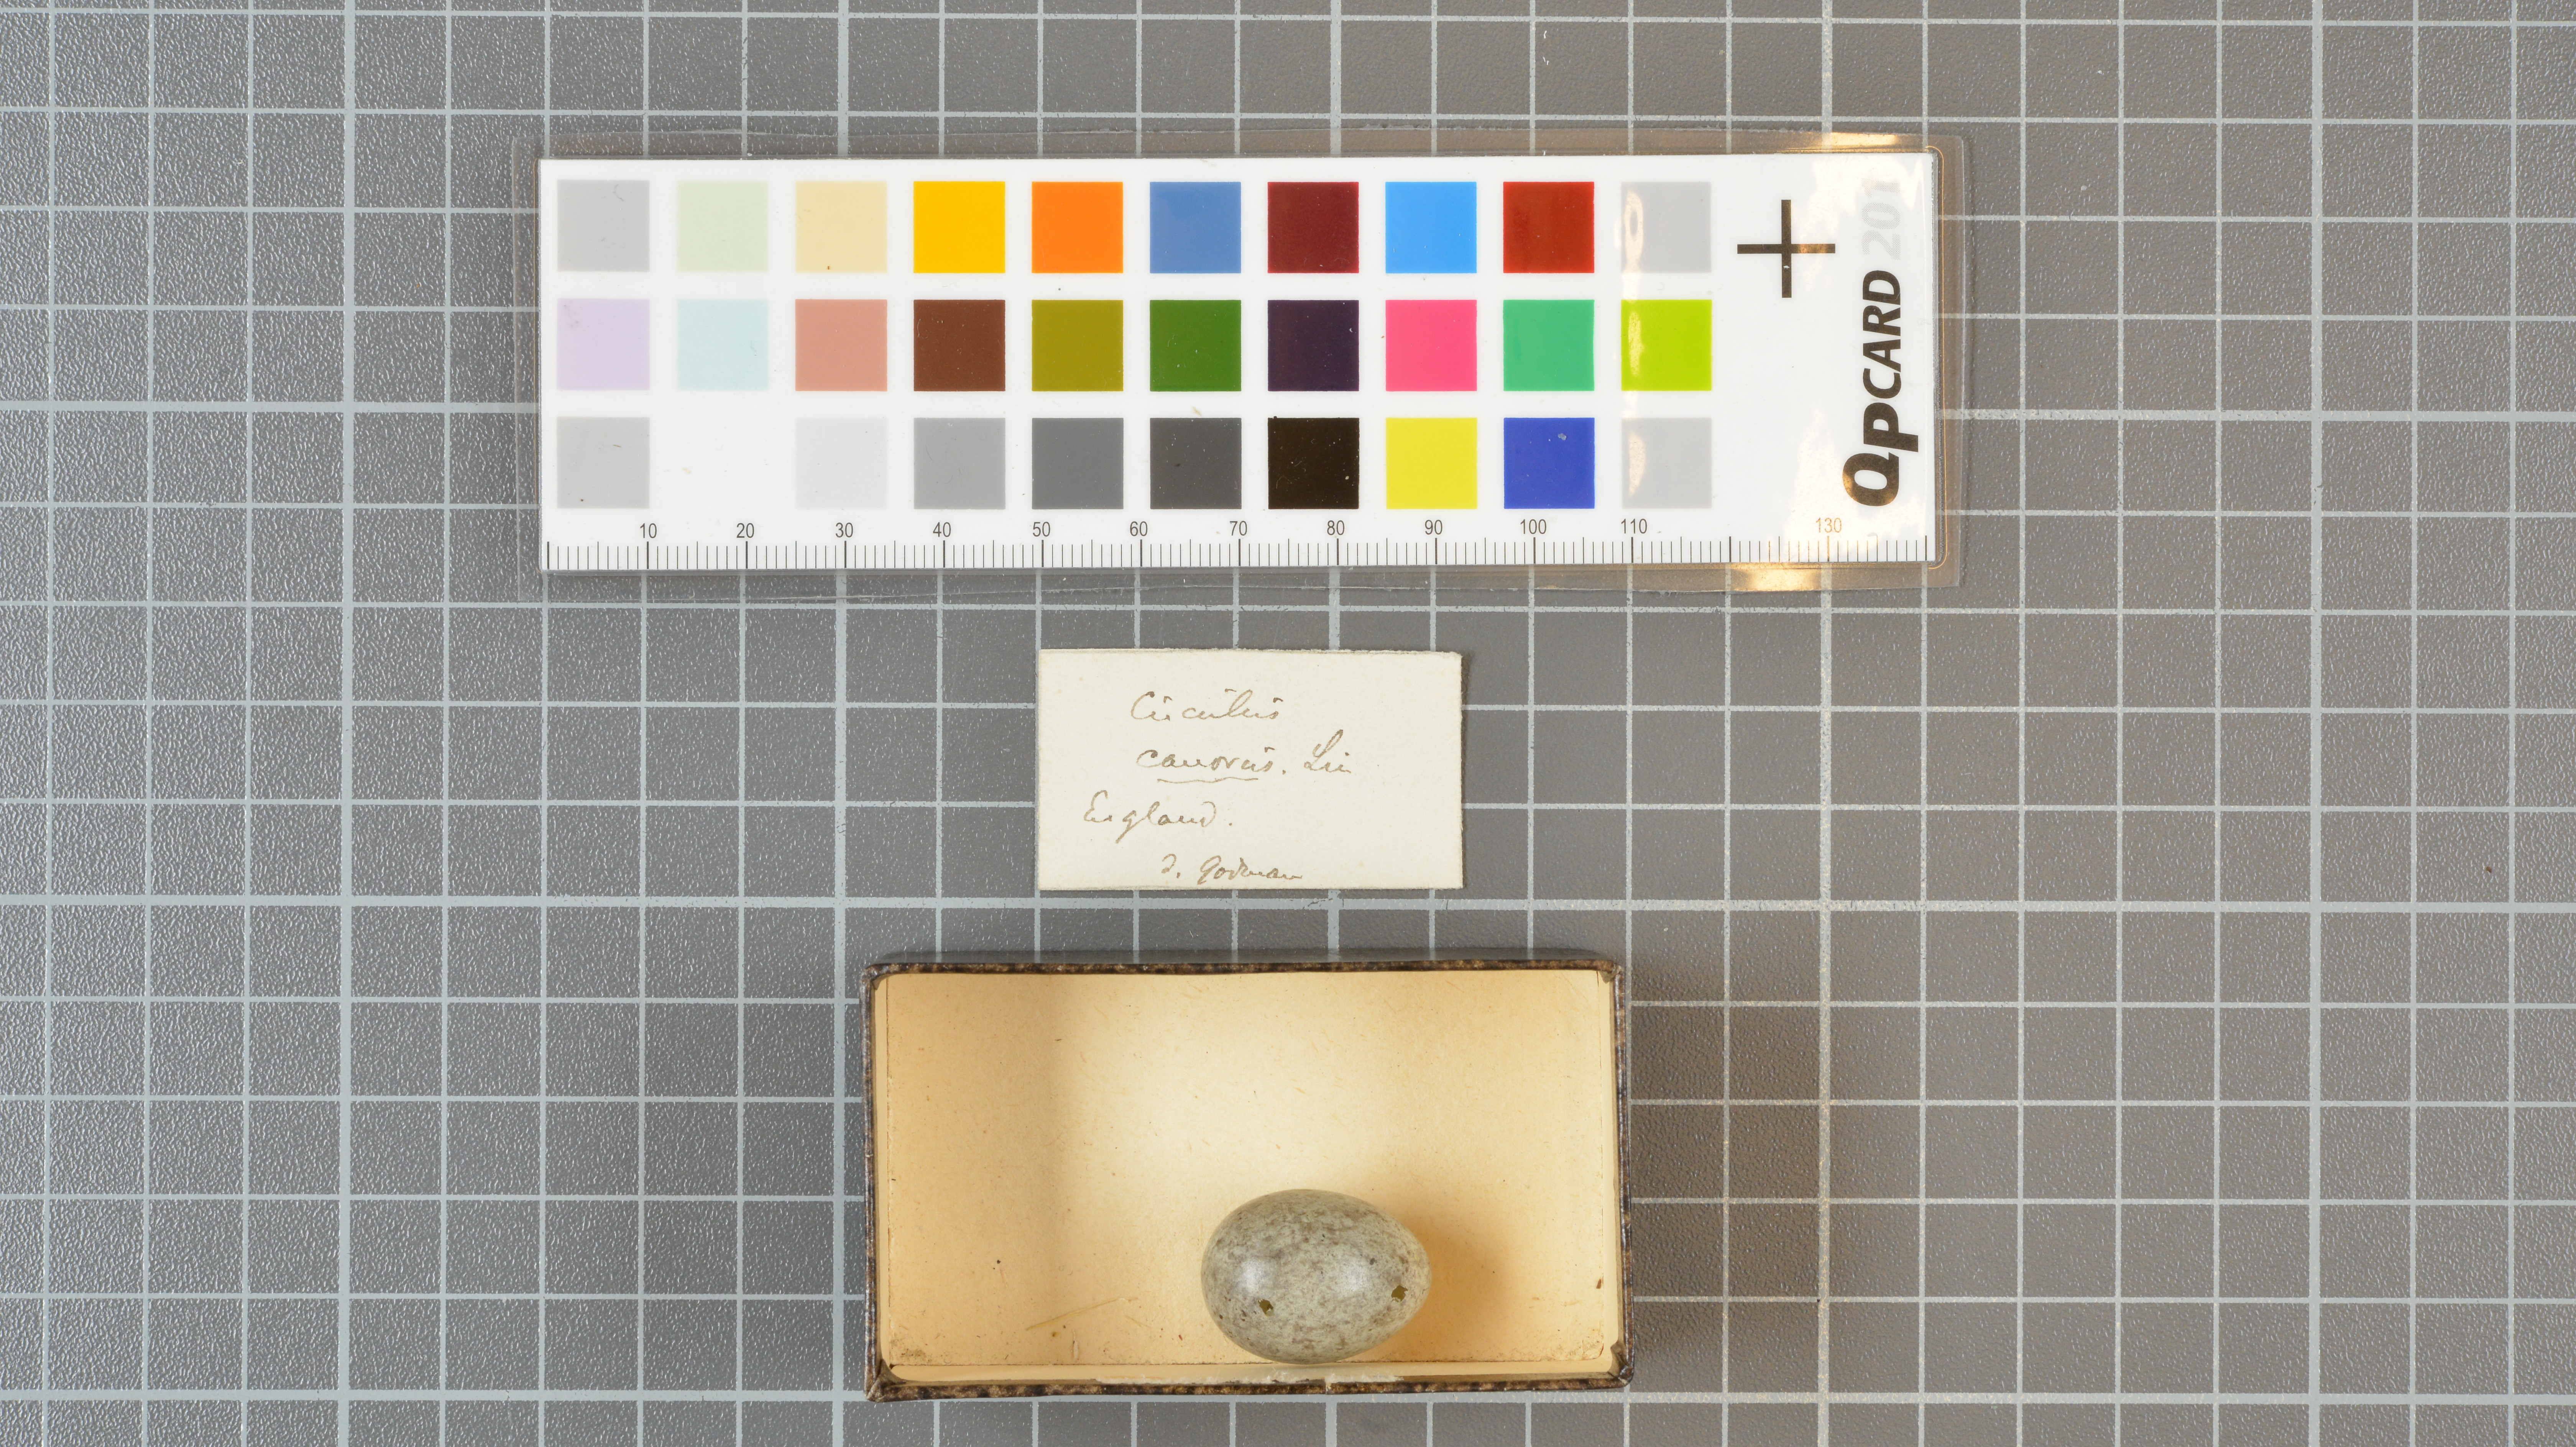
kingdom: Animalia
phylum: Chordata
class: Aves
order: Cuculiformes
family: Cuculidae
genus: Cuculus
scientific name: Cuculus canorus
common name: Common cuckoo
